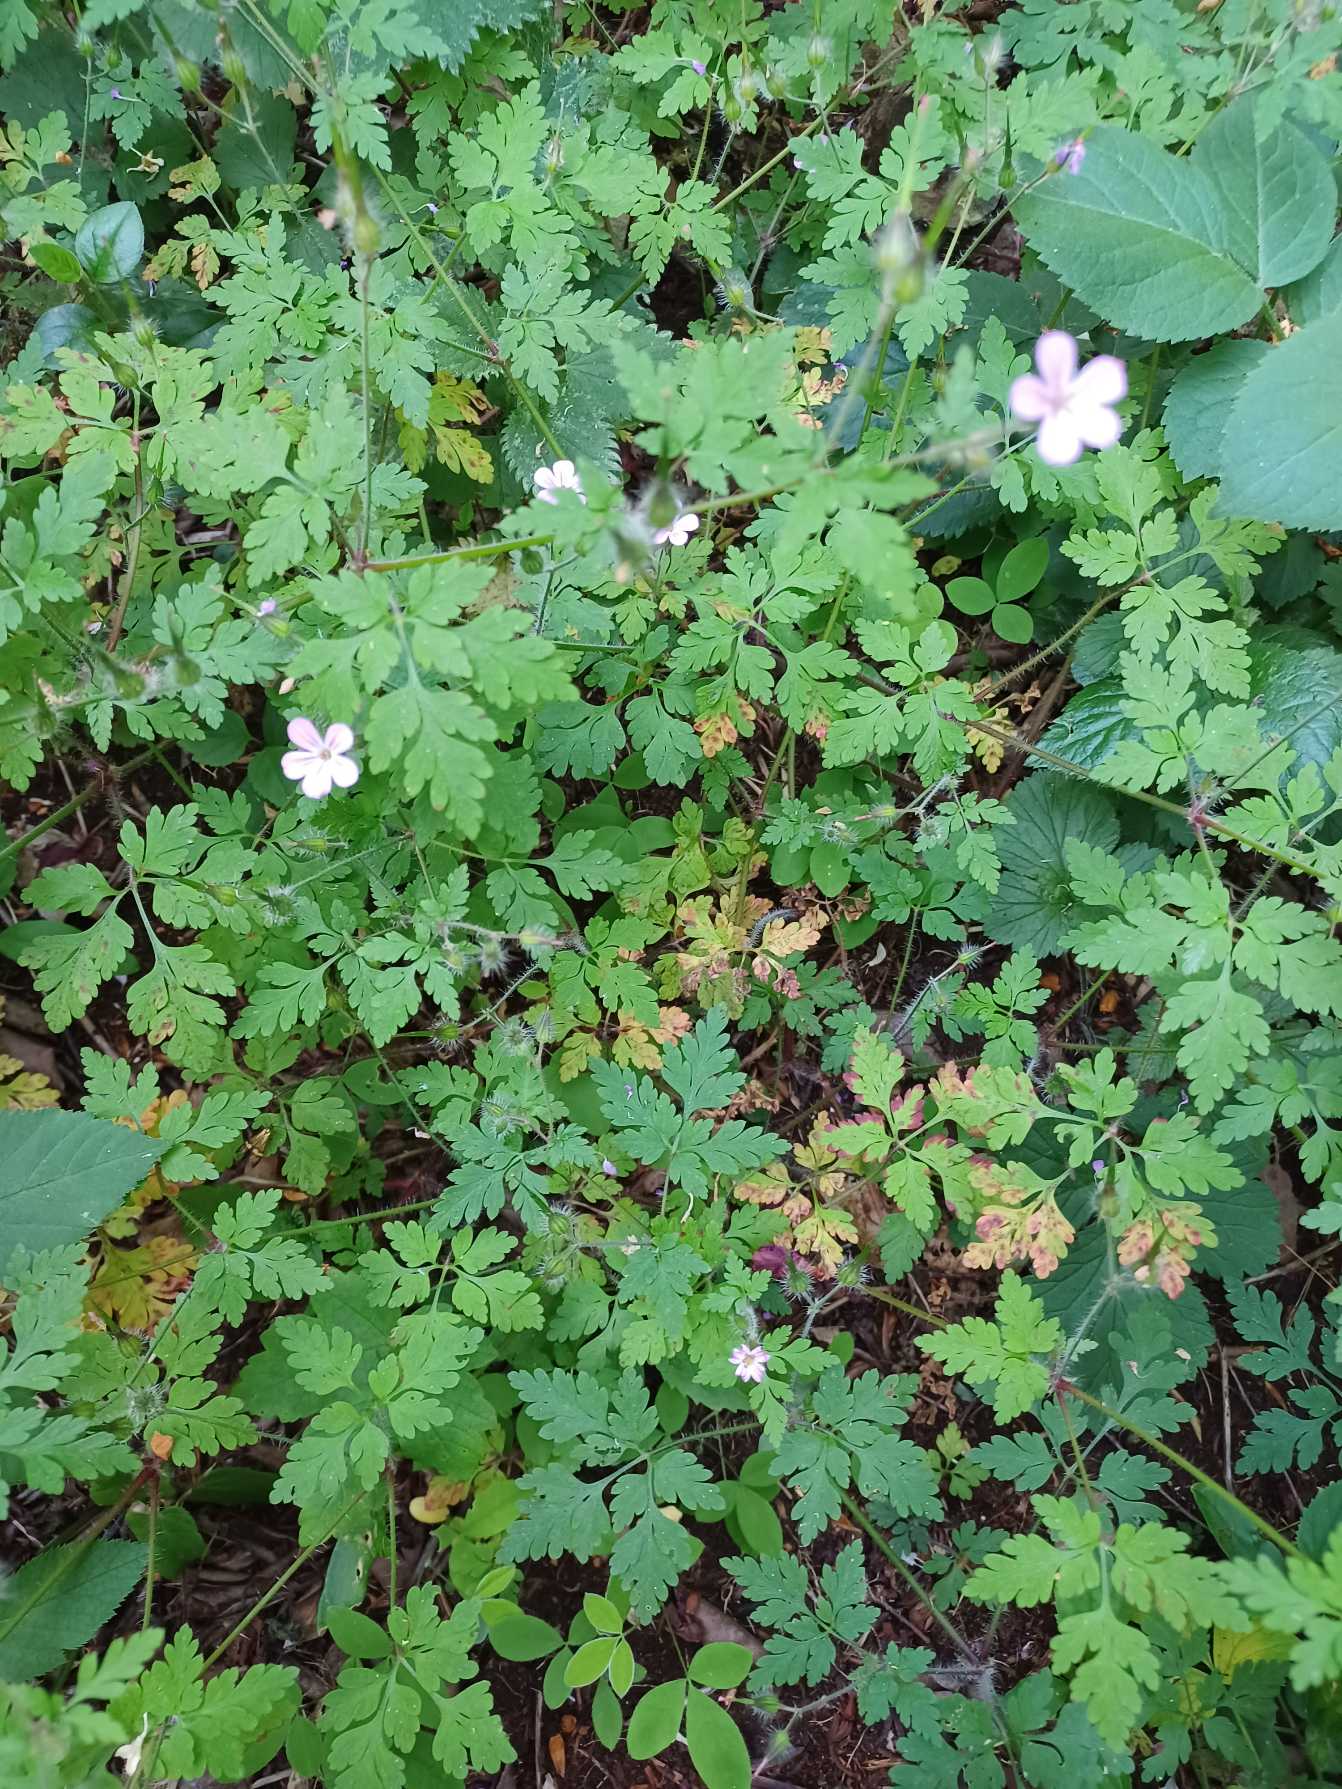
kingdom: Plantae
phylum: Tracheophyta
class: Magnoliopsida
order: Geraniales
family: Geraniaceae
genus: Geranium
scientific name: Geranium robertianum
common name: Stinkende storkenæb
